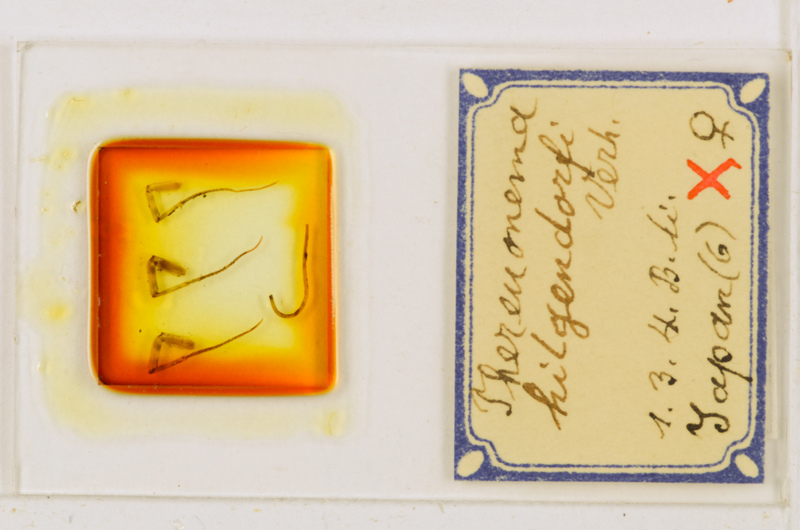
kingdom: Animalia
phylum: Arthropoda
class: Chilopoda
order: Scutigeromorpha
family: Scutigeridae
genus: Thereuonema
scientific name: Thereuonema tuberculata
